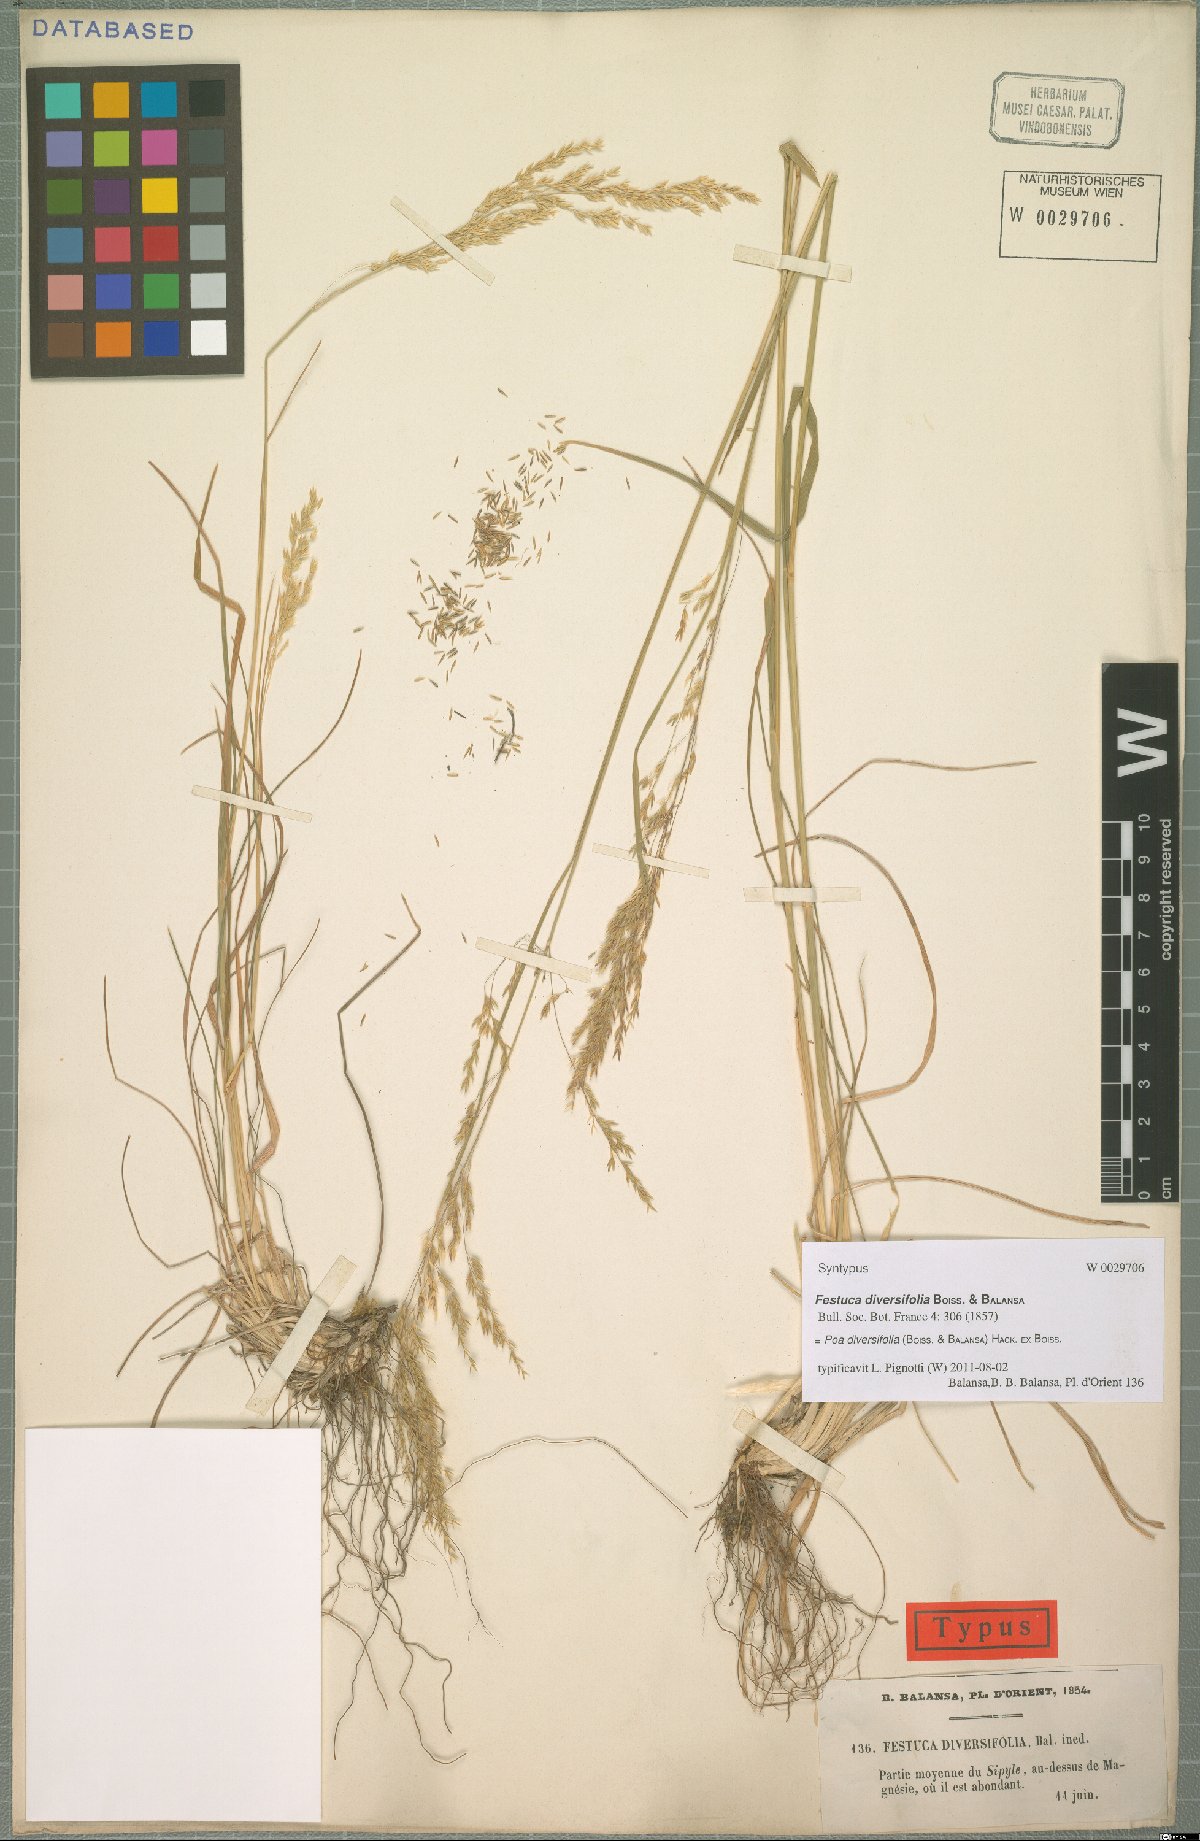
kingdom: Plantae
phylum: Tracheophyta
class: Liliopsida
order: Poales
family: Poaceae
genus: Poa
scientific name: Poa diversifolia
